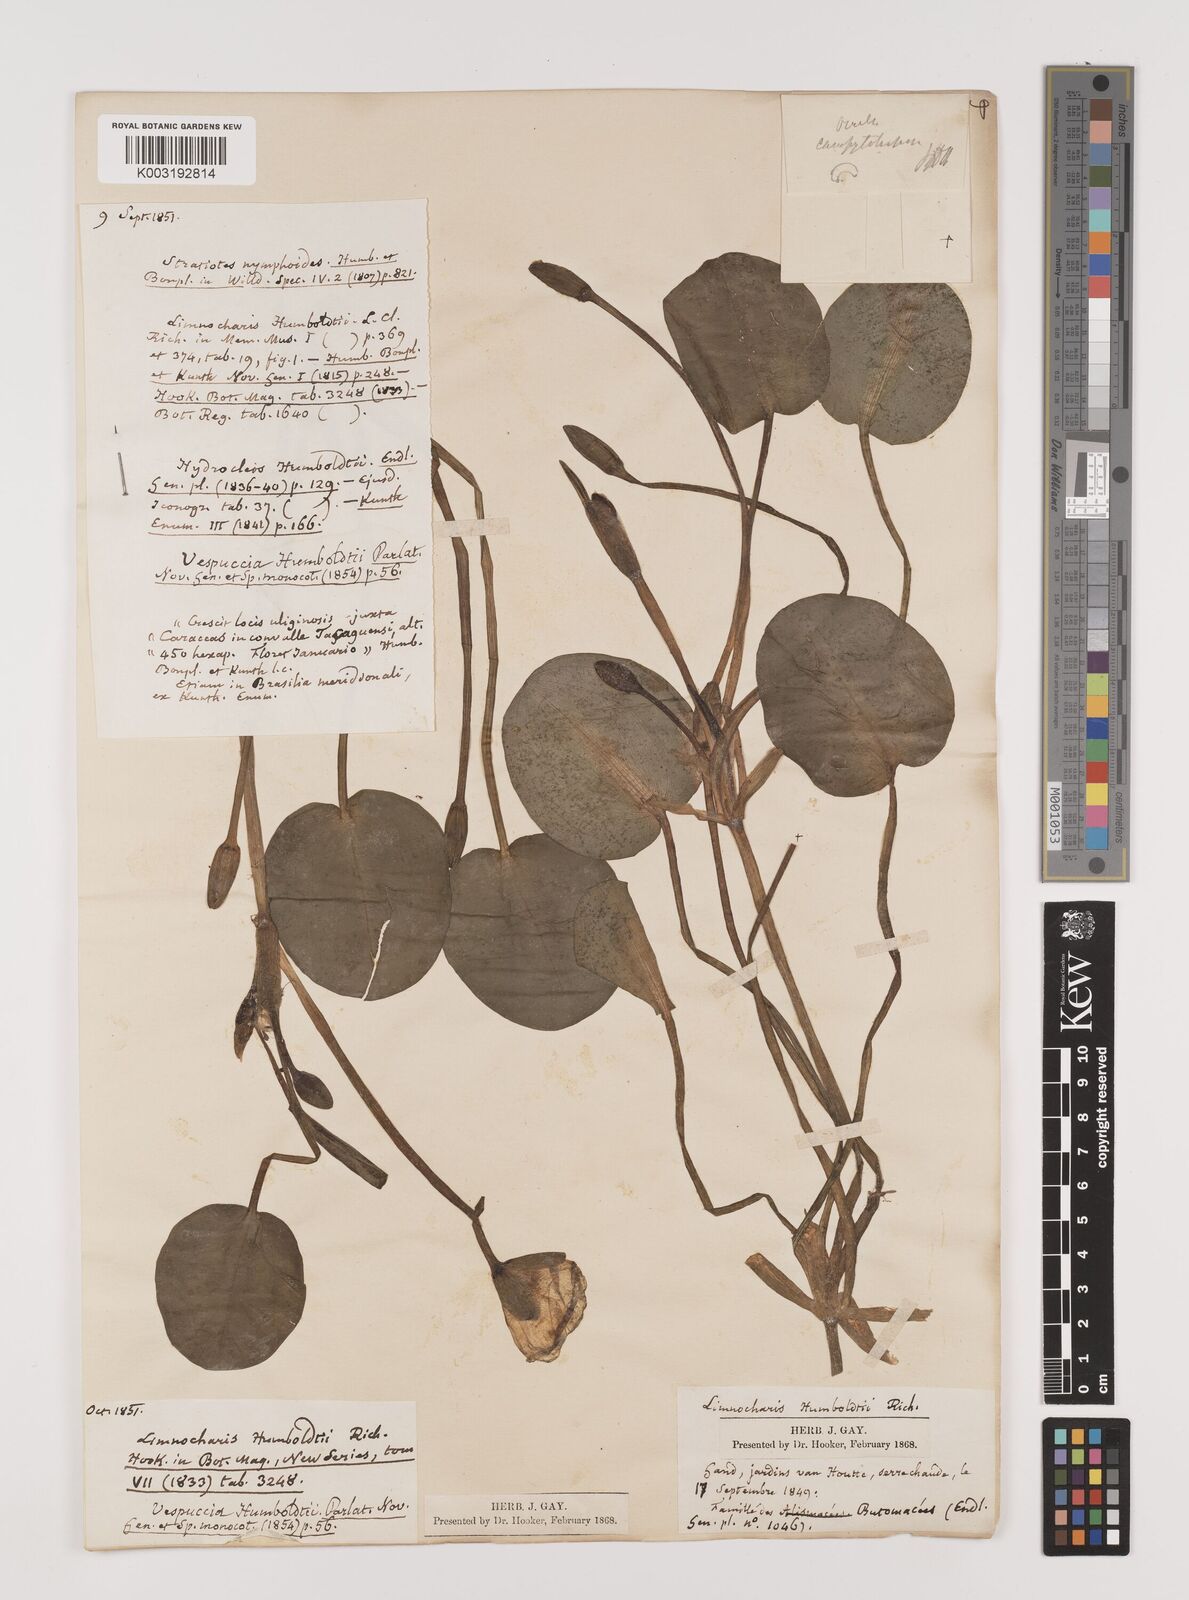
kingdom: Plantae
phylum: Tracheophyta
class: Liliopsida
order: Alismatales
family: Alismataceae
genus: Hydrocleys
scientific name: Hydrocleys nymphoides
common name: Water-poppy
